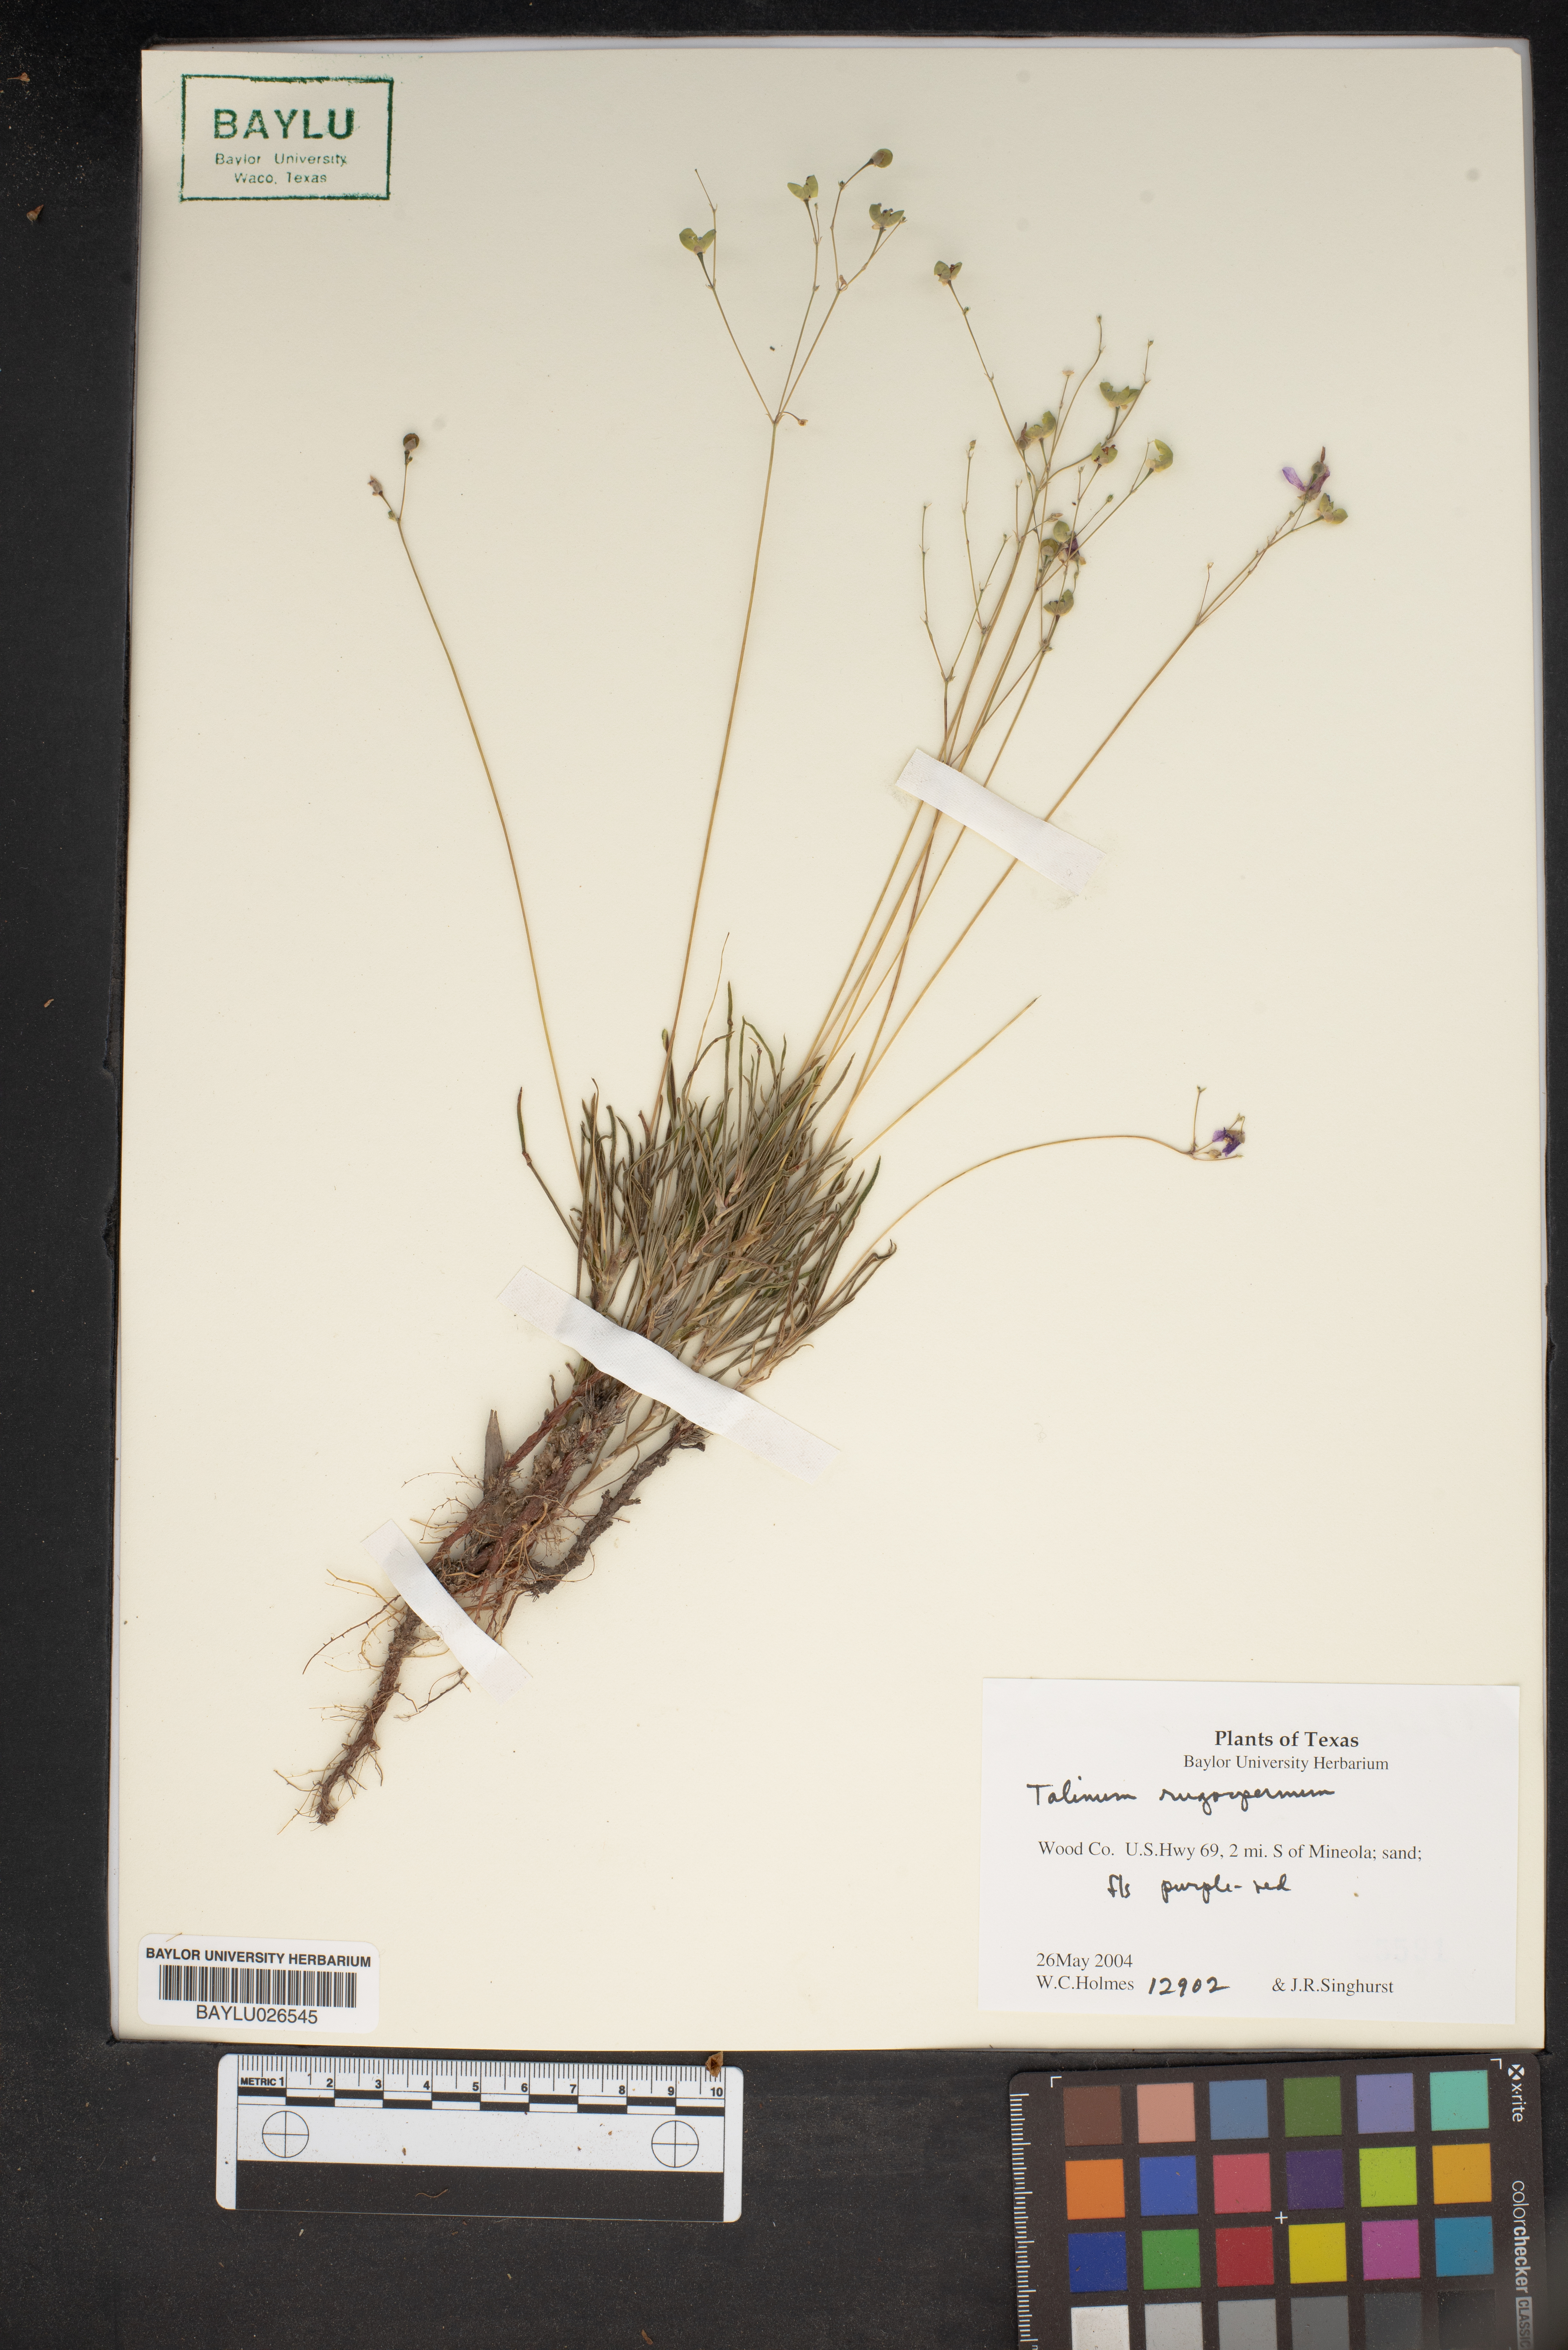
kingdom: Plantae
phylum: Tracheophyta
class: Magnoliopsida
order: Caryophyllales
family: Montiaceae
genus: Phemeranthus
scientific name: Phemeranthus rugospermus
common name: Prairie fameflower
